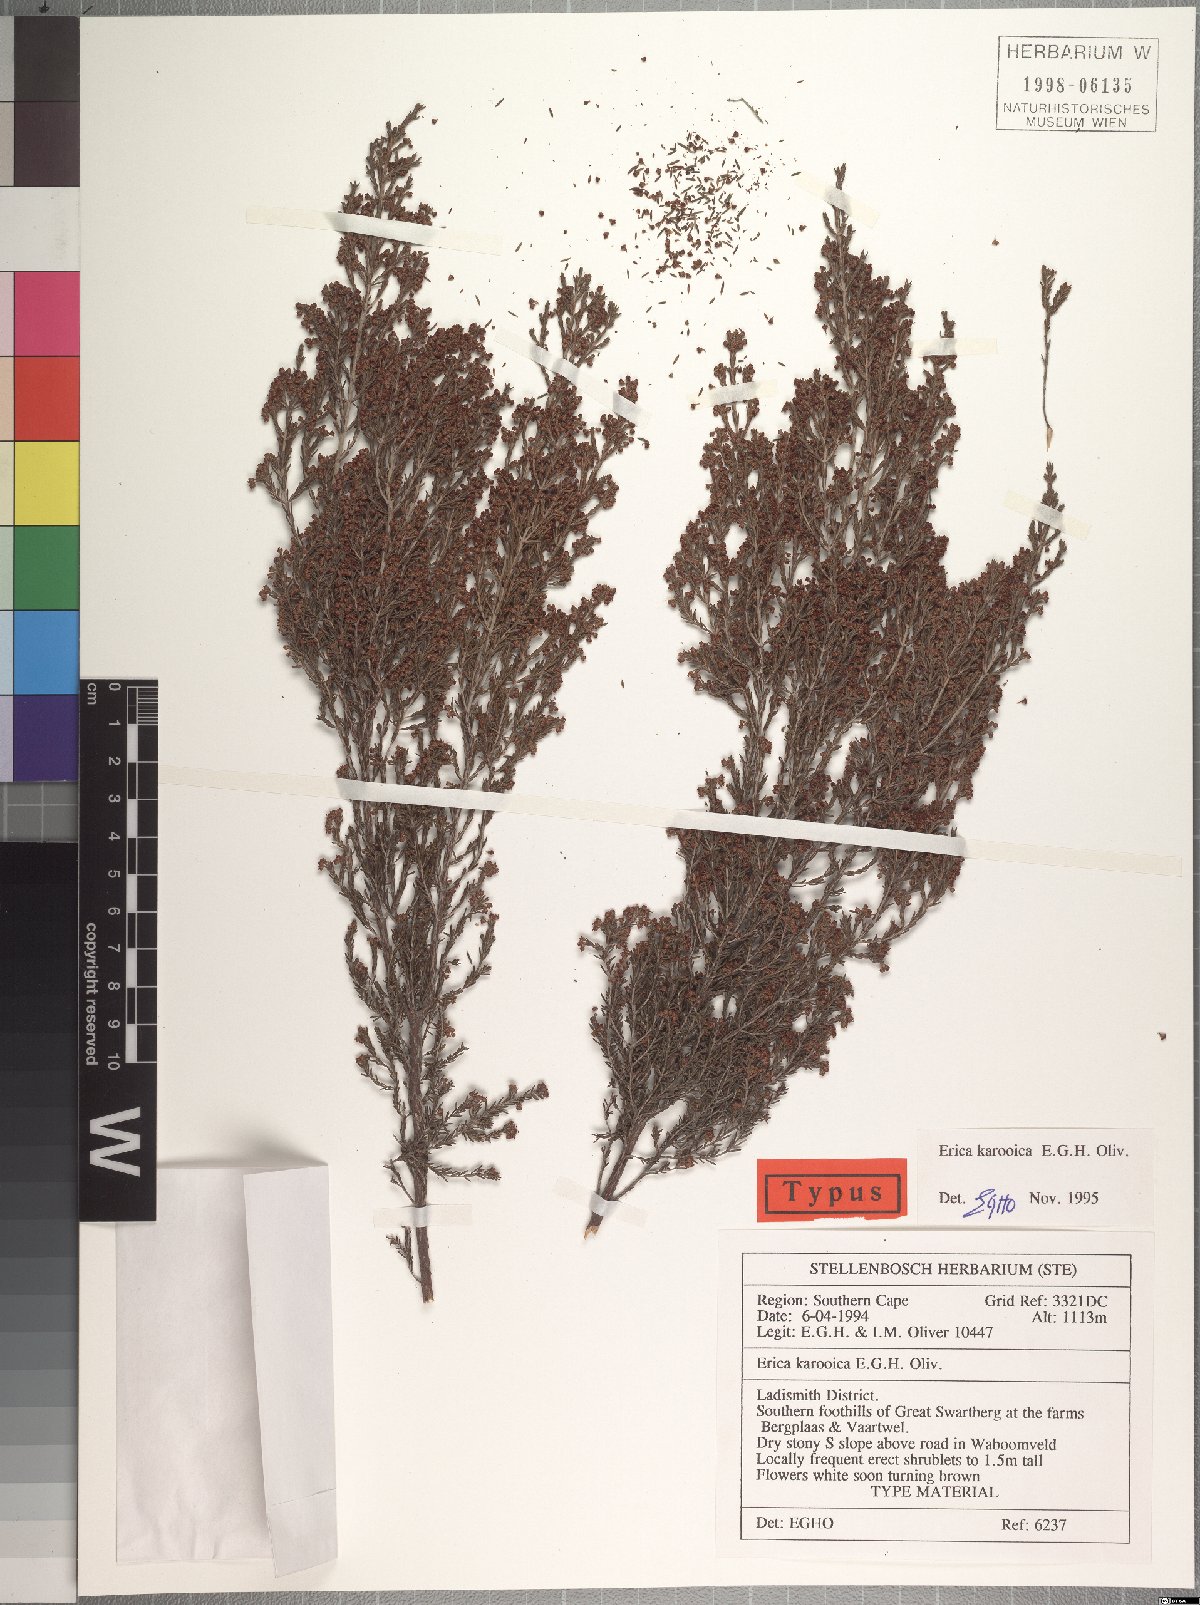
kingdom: Plantae
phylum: Tracheophyta
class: Magnoliopsida
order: Ericales
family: Ericaceae
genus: Erica
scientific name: Erica karooica
